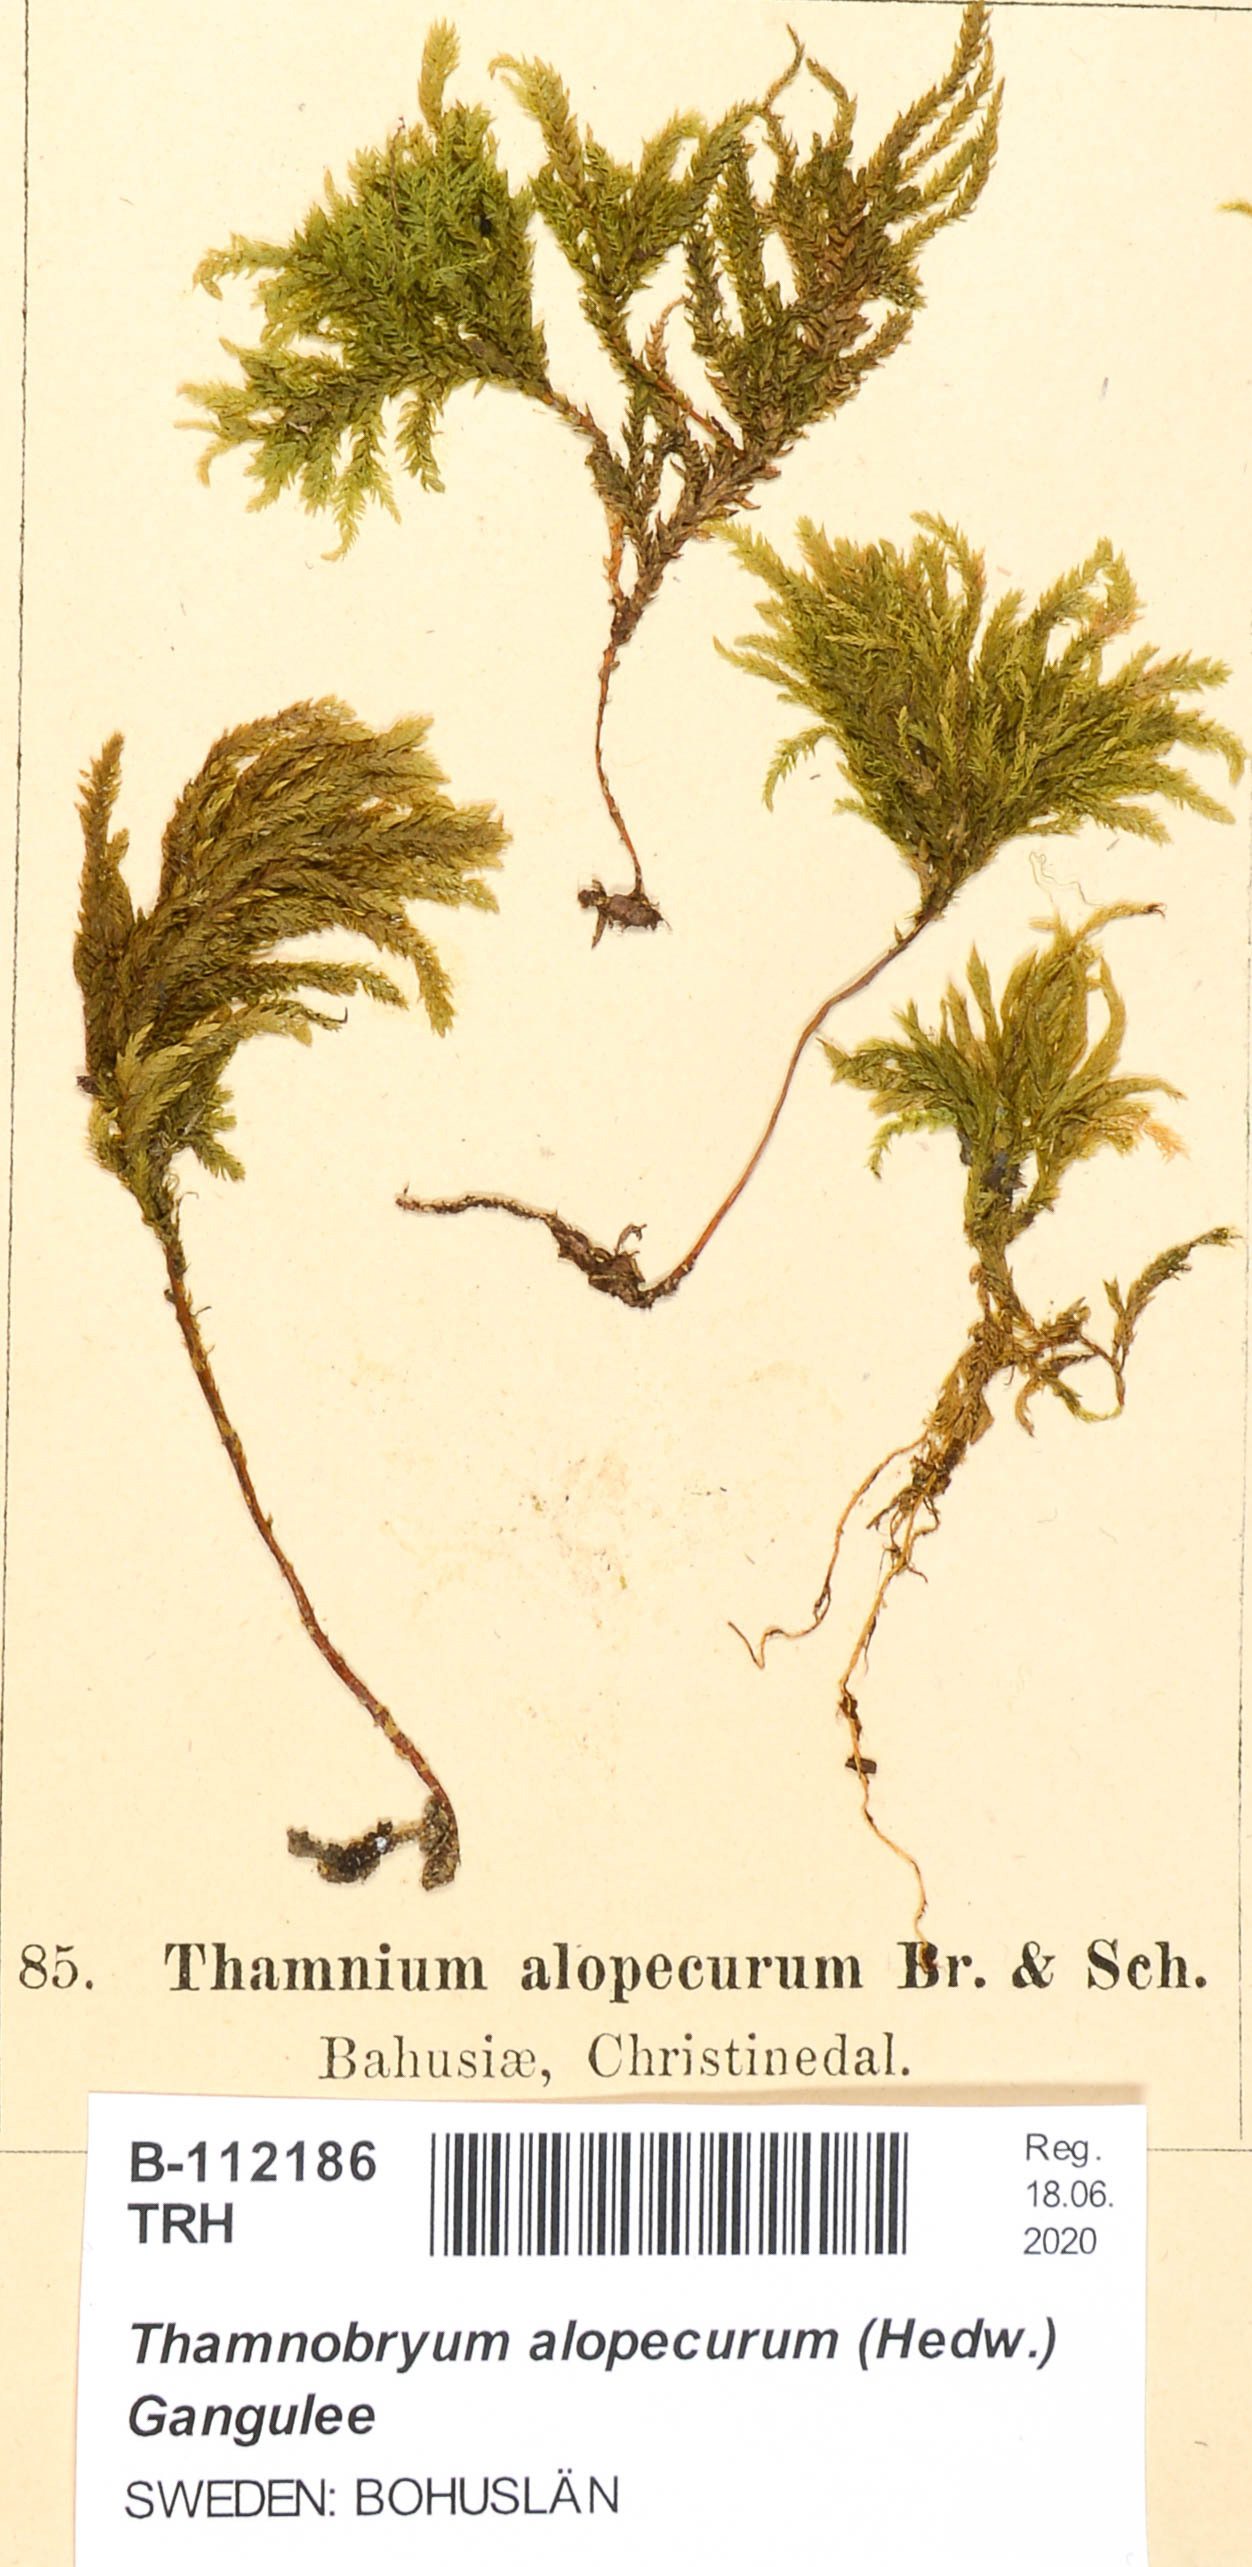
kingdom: Plantae
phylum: Bryophyta
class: Bryopsida
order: Hypnales
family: Neckeraceae
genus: Thamnobryum
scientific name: Thamnobryum alopecurum
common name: Fox-tail feather-moss
